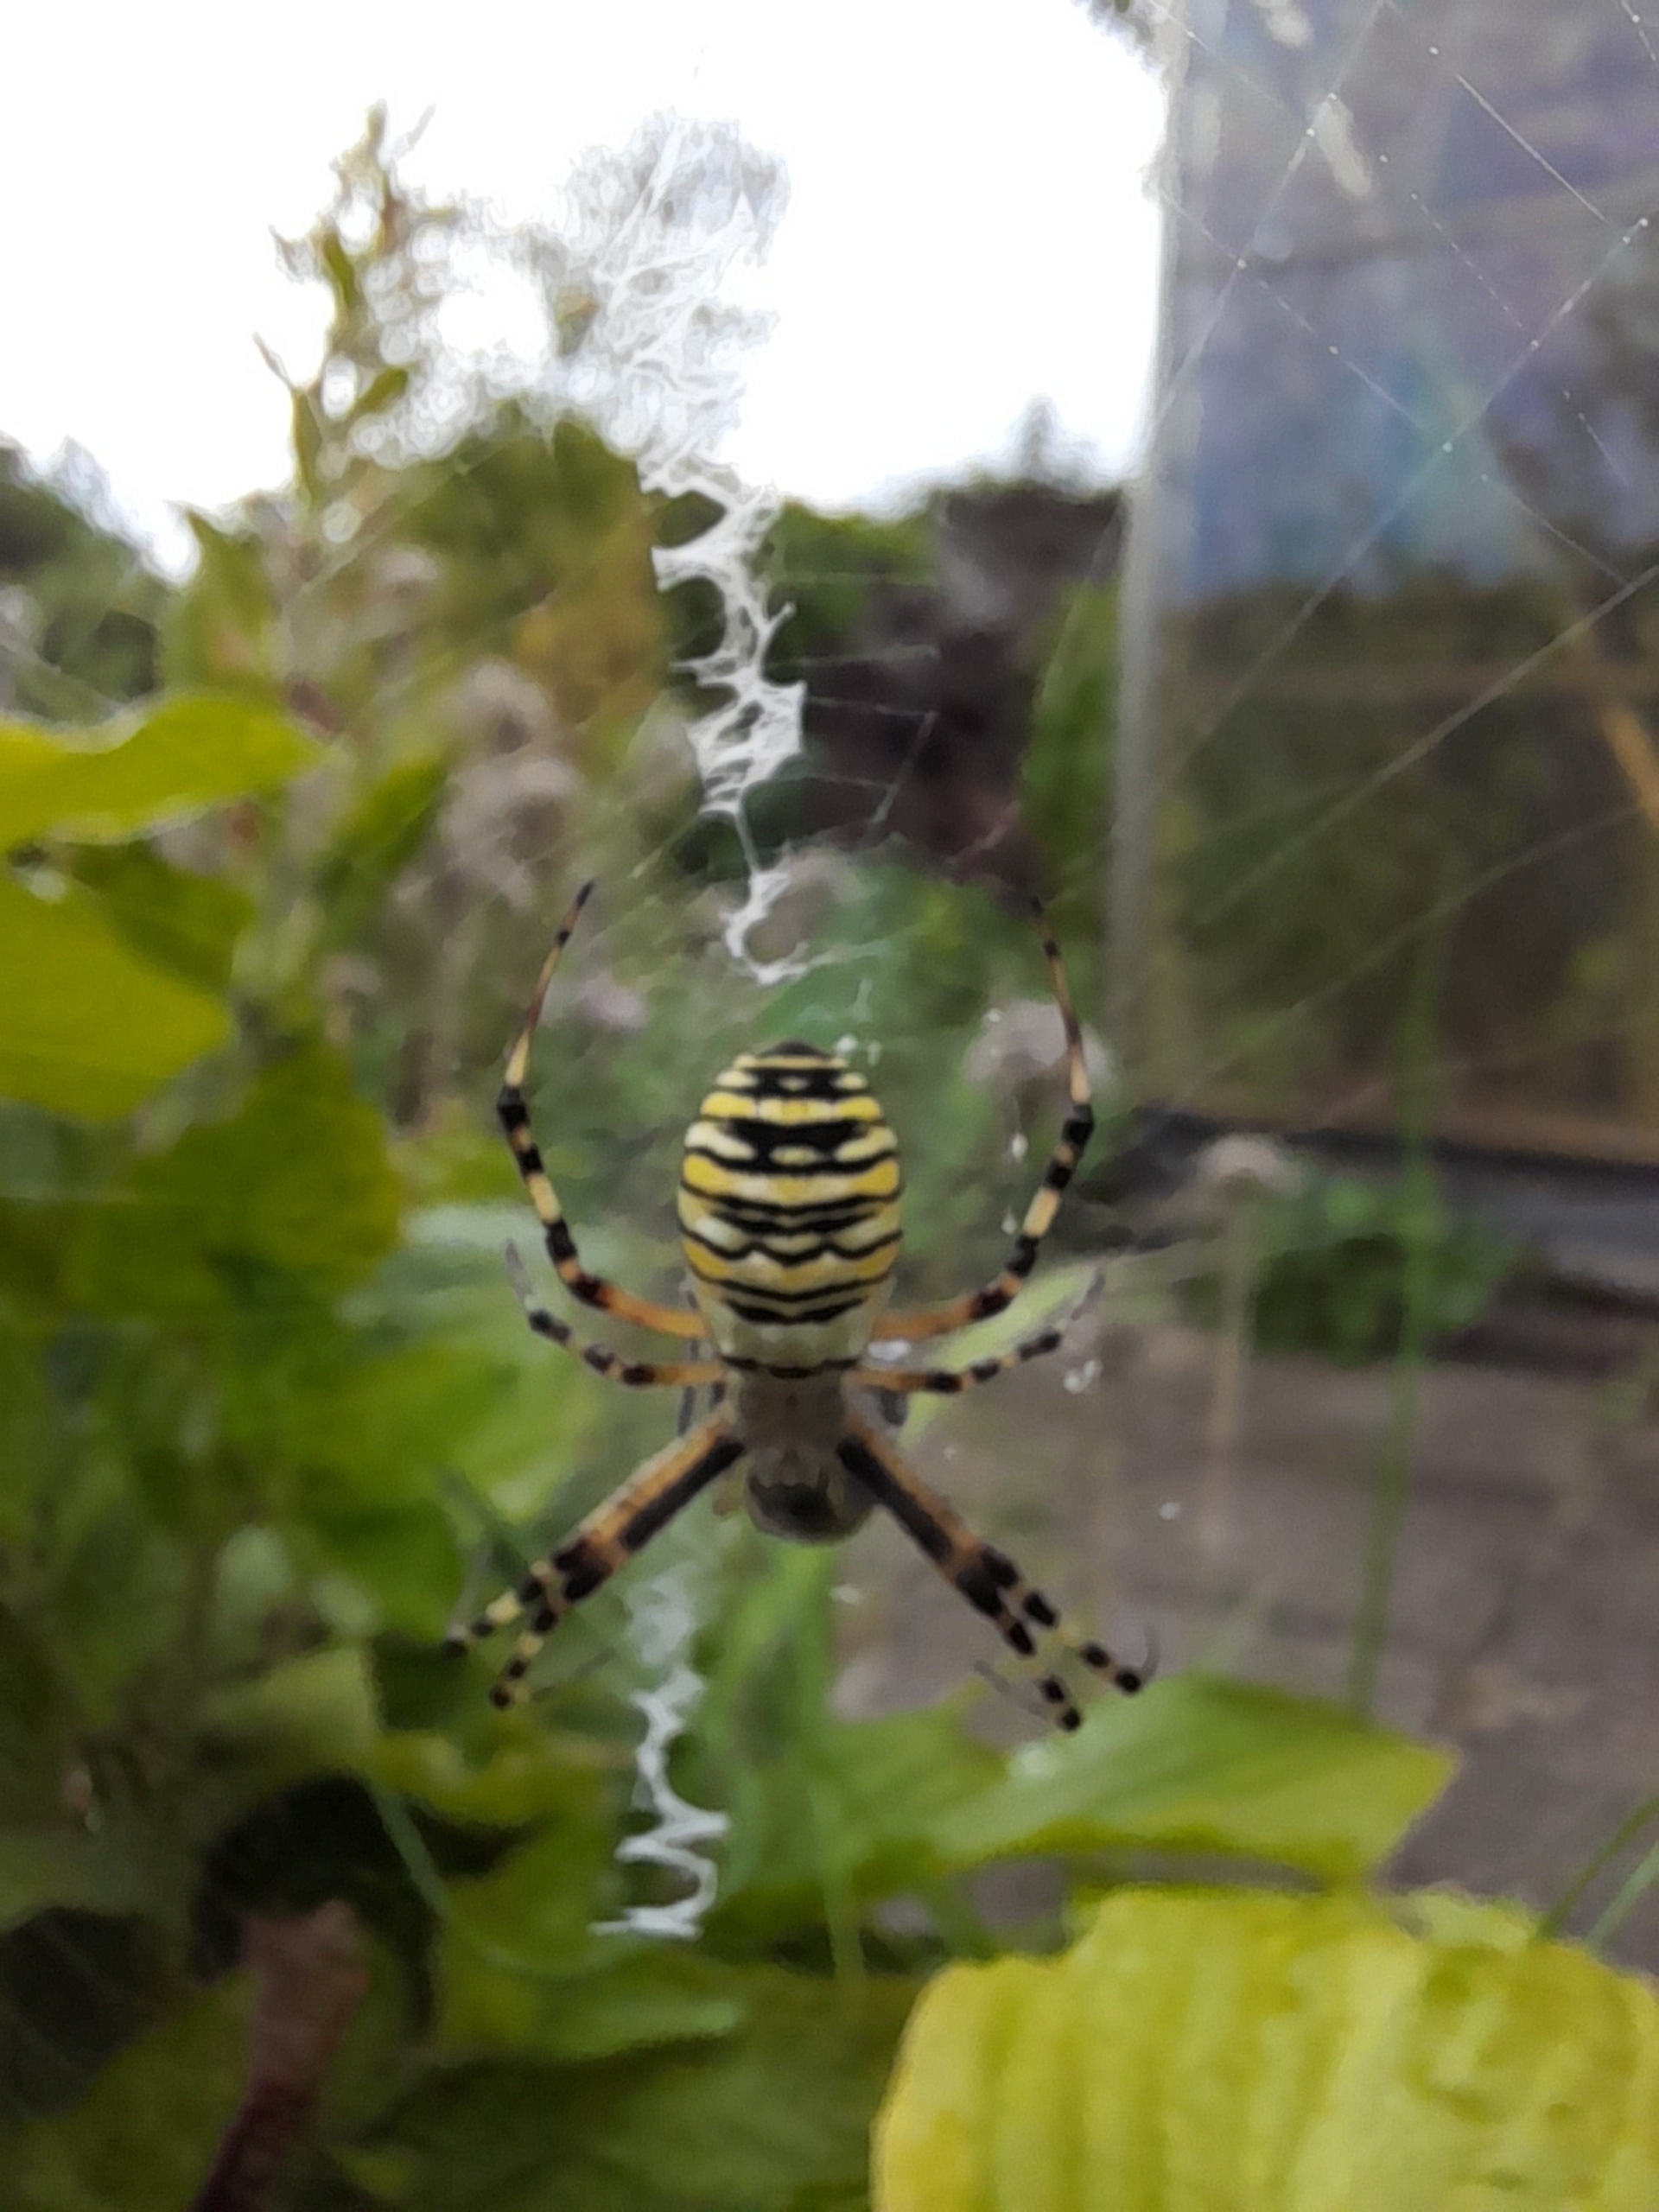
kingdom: Animalia
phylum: Arthropoda
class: Arachnida
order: Araneae
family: Araneidae
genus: Argiope
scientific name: Argiope bruennichi
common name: Hvepseedderkop
